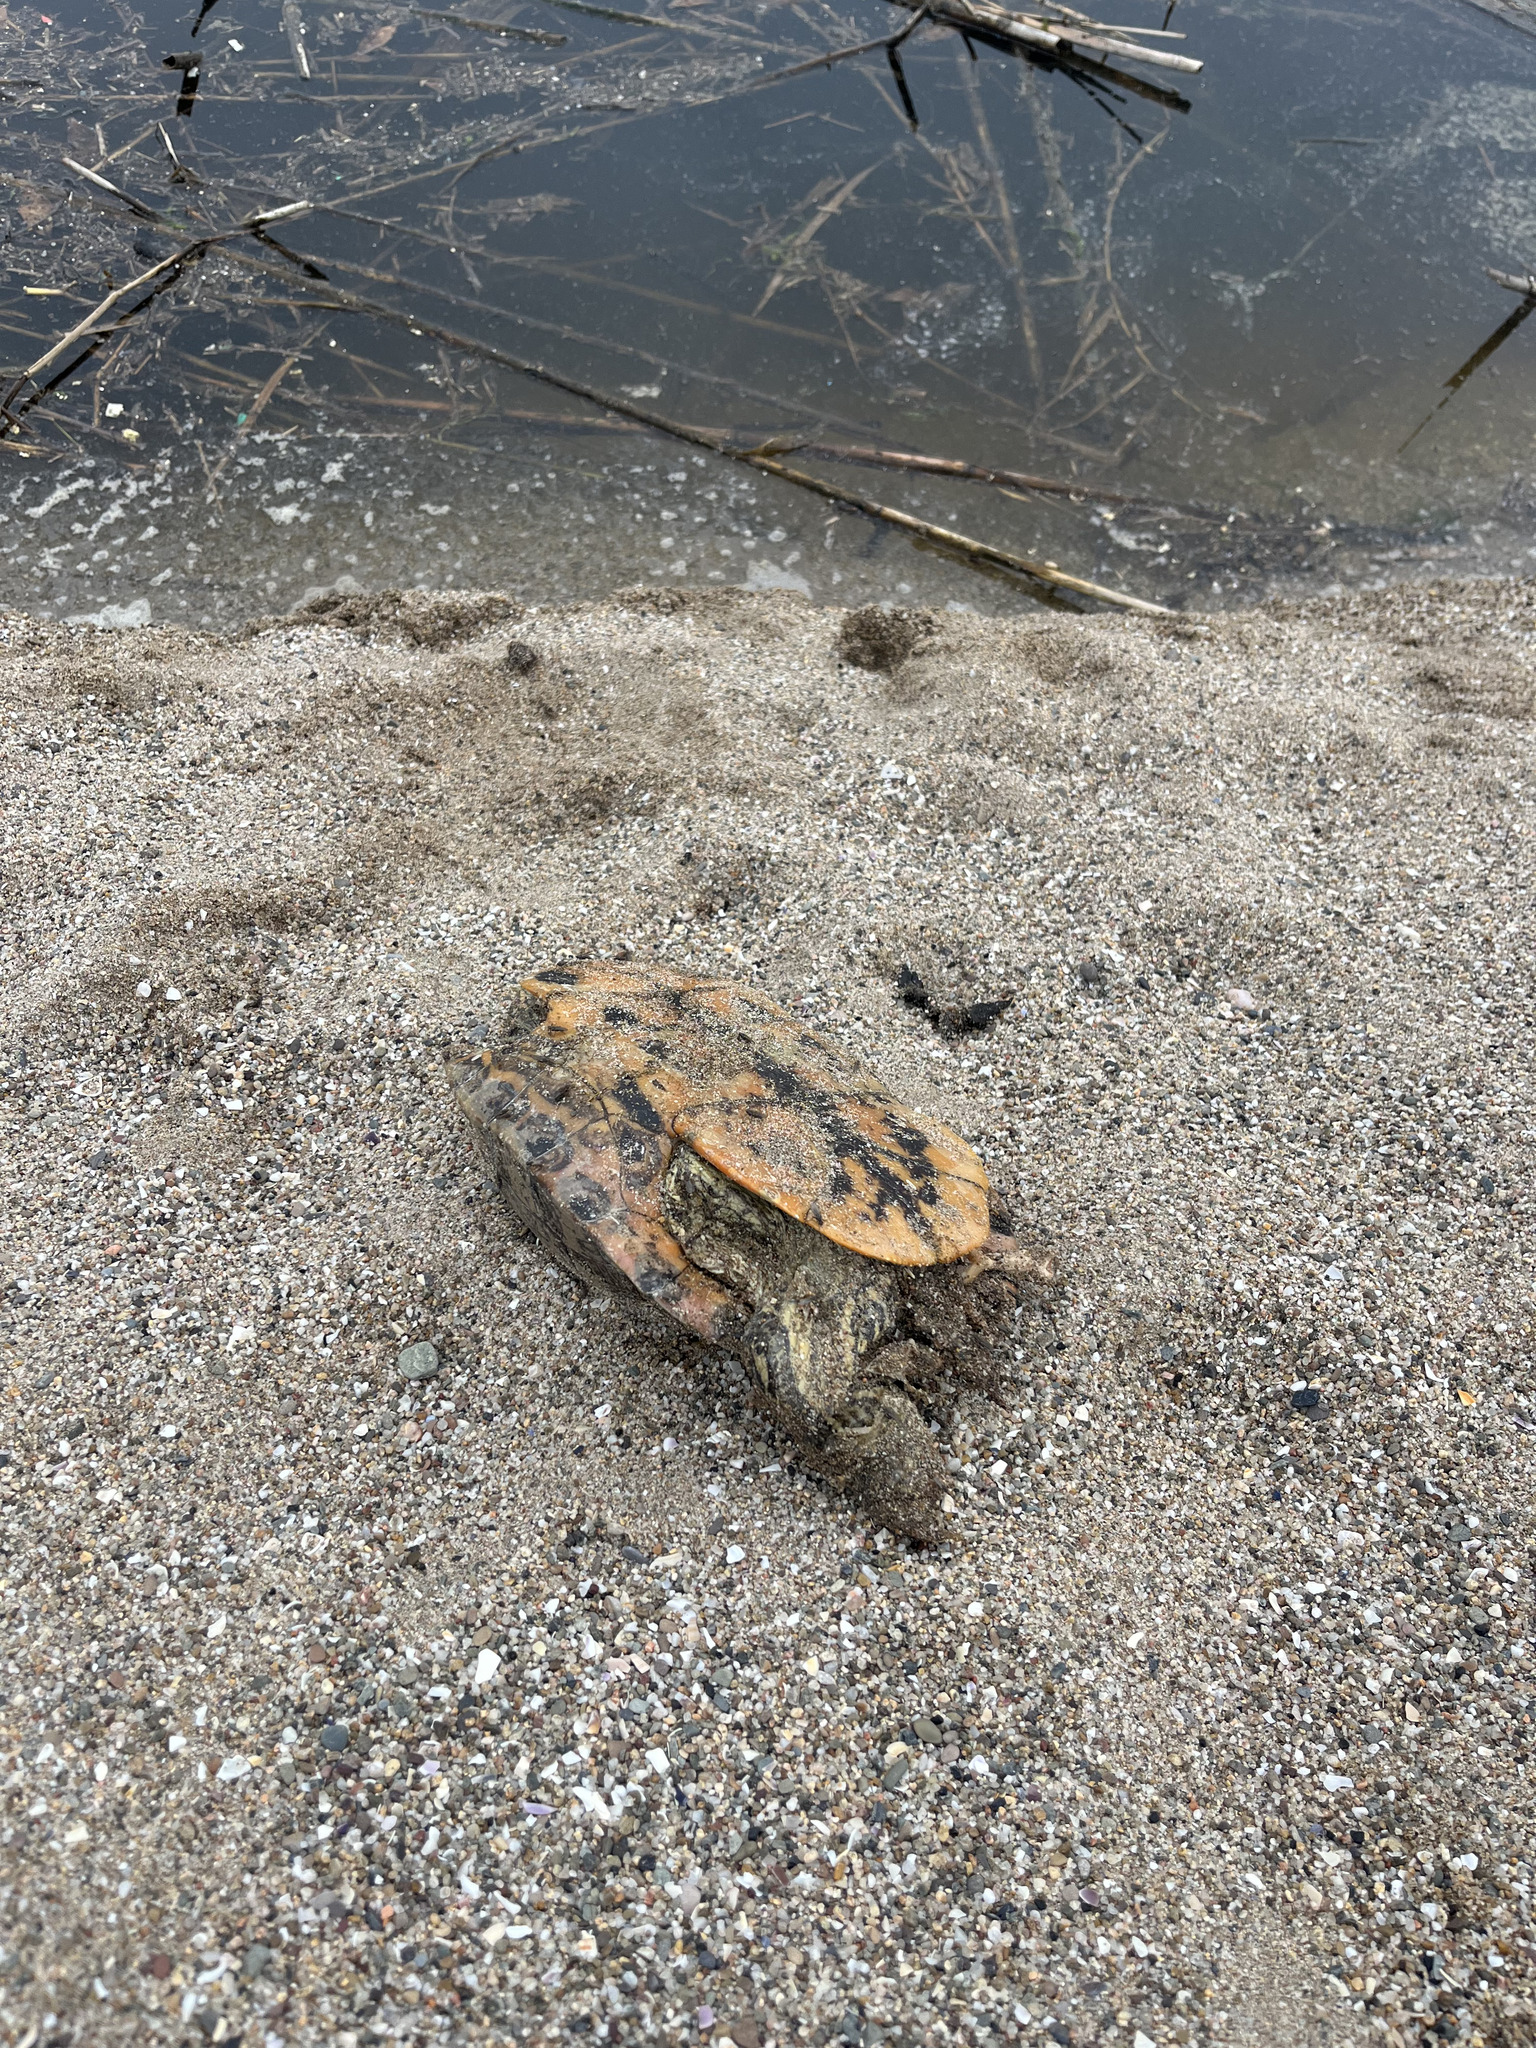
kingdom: Animalia
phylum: Chordata
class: Testudines
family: Emydidae
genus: Trachemys
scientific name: Trachemys scripta
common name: Slider
